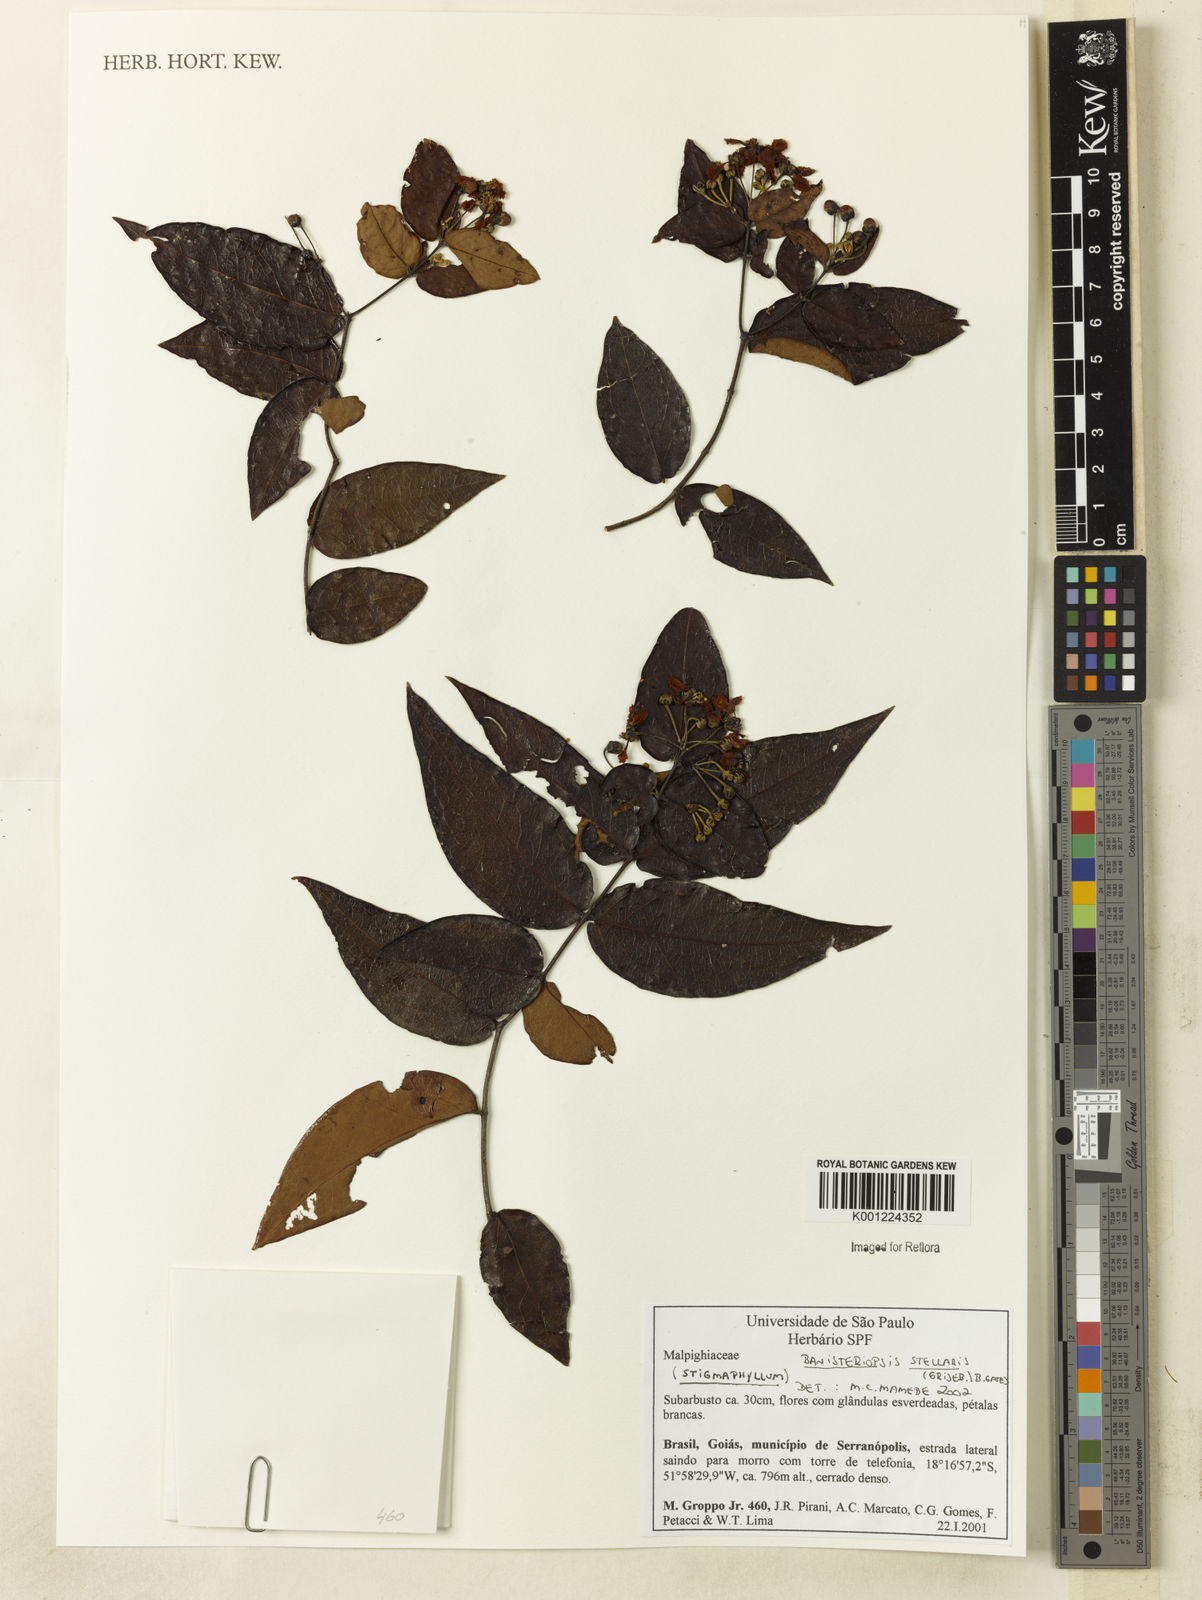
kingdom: Plantae
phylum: Tracheophyta
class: Magnoliopsida
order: Malpighiales
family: Malpighiaceae
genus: Banisteriopsis
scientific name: Banisteriopsis stellaris
